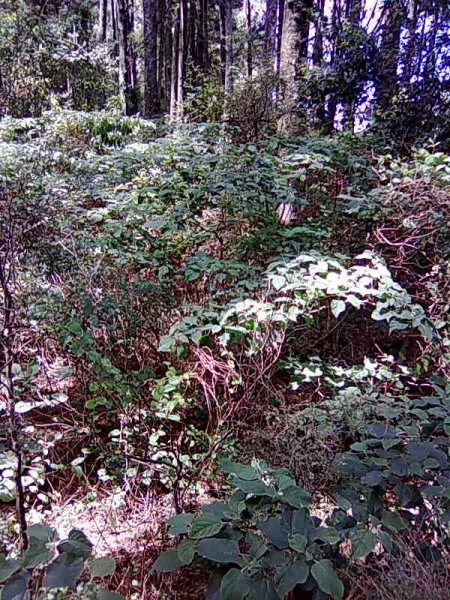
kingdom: Plantae
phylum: Tracheophyta
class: Magnoliopsida
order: Lamiales
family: Lamiaceae
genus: Clerodendrum
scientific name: Clerodendrum trichotomum
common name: Harlequin glorybower
